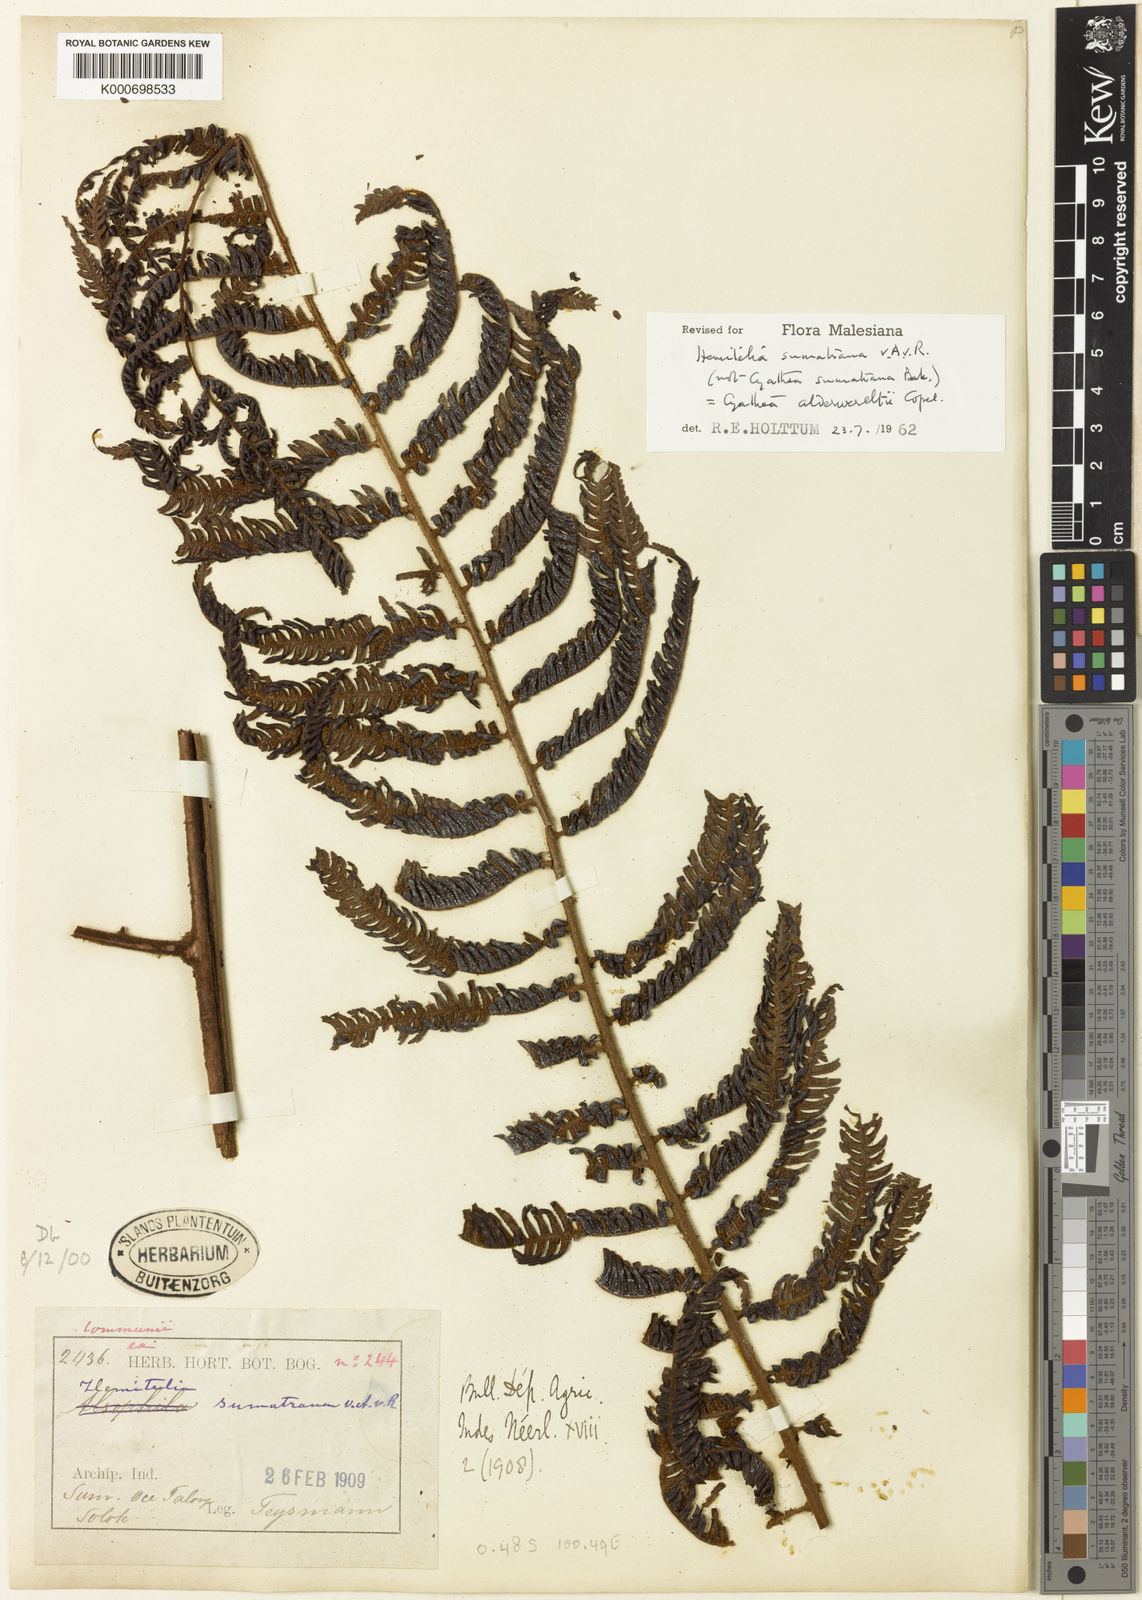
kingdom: Plantae
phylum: Tracheophyta
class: Polypodiopsida
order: Cyatheales
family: Cyatheaceae
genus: Alsophila
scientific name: Alsophila alderwereltii
